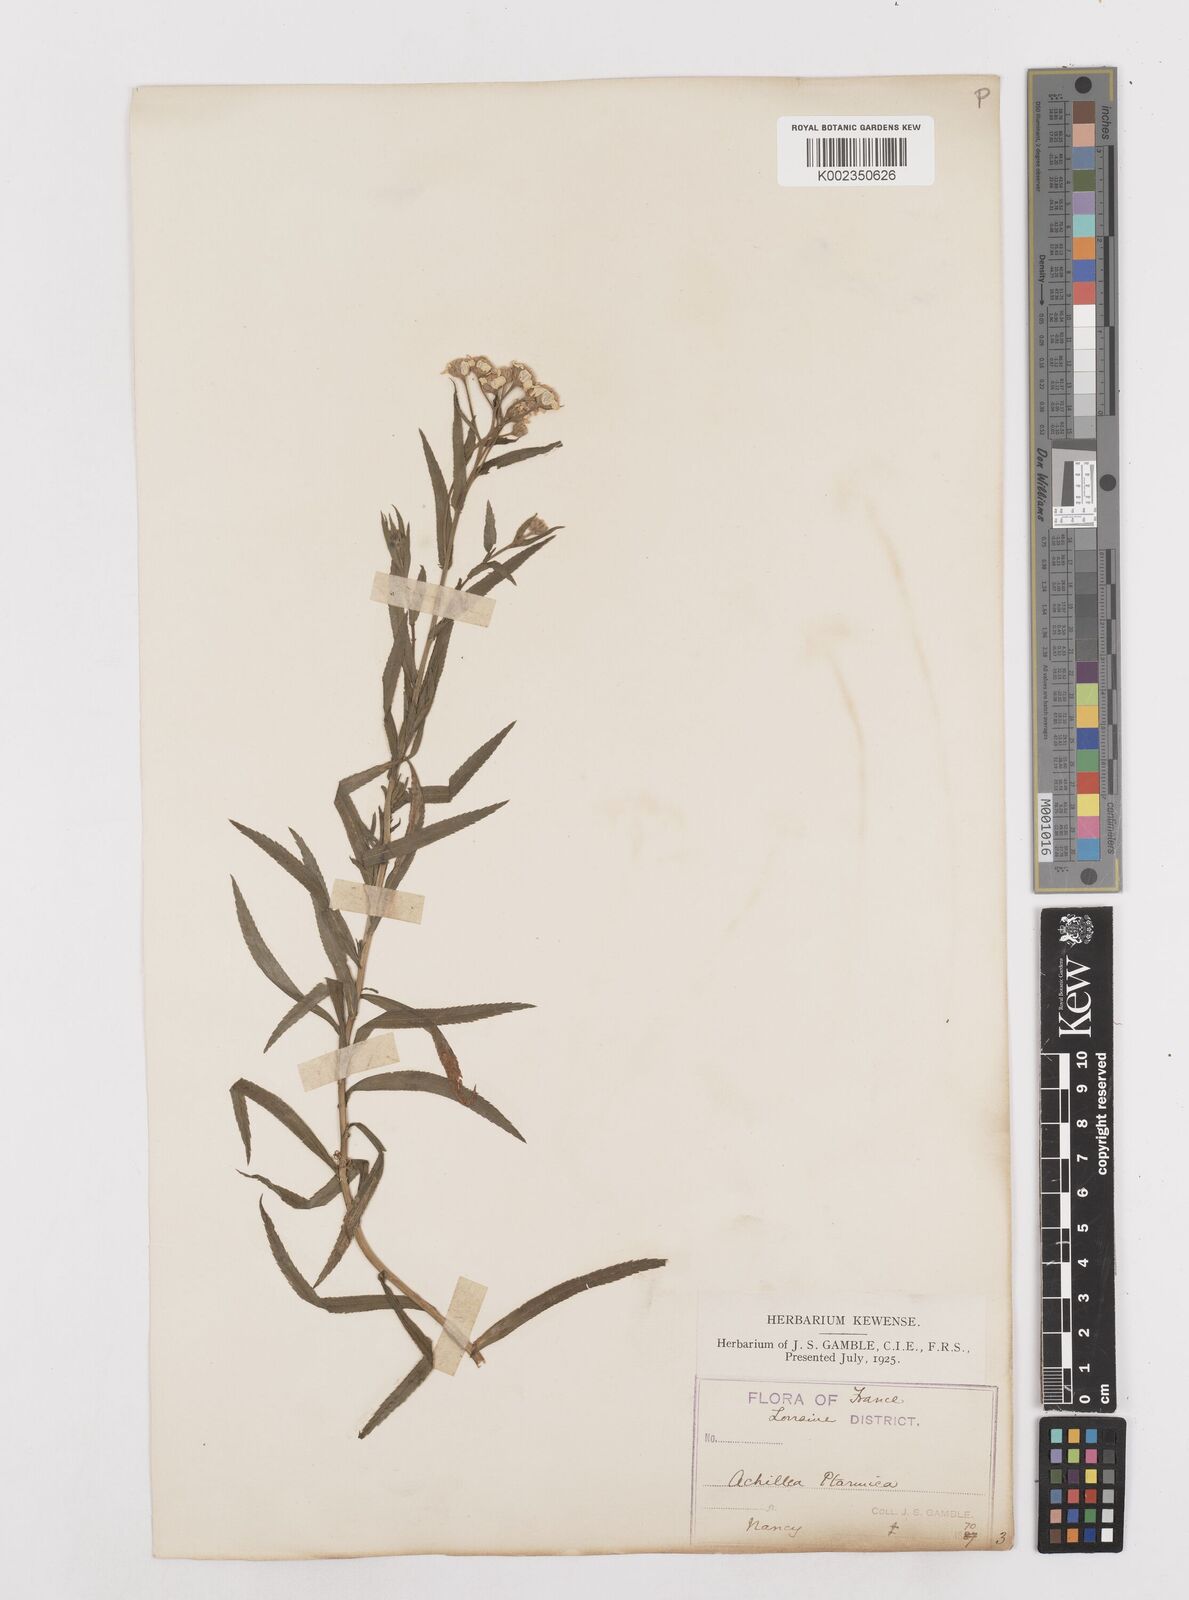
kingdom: Plantae
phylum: Tracheophyta
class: Magnoliopsida
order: Asterales
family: Asteraceae
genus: Achillea
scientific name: Achillea ptarmica
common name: Sneezeweed
